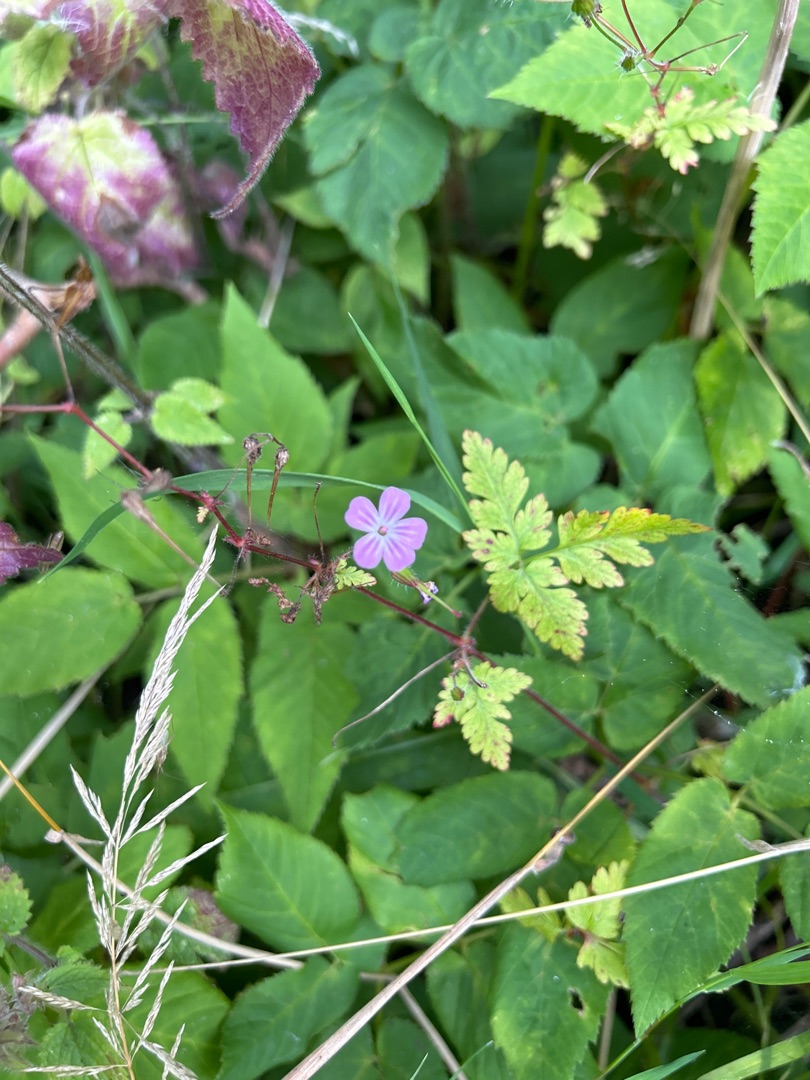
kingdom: Plantae
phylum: Tracheophyta
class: Magnoliopsida
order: Geraniales
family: Geraniaceae
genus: Geranium
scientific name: Geranium robertianum
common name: Stinkende storkenæb
